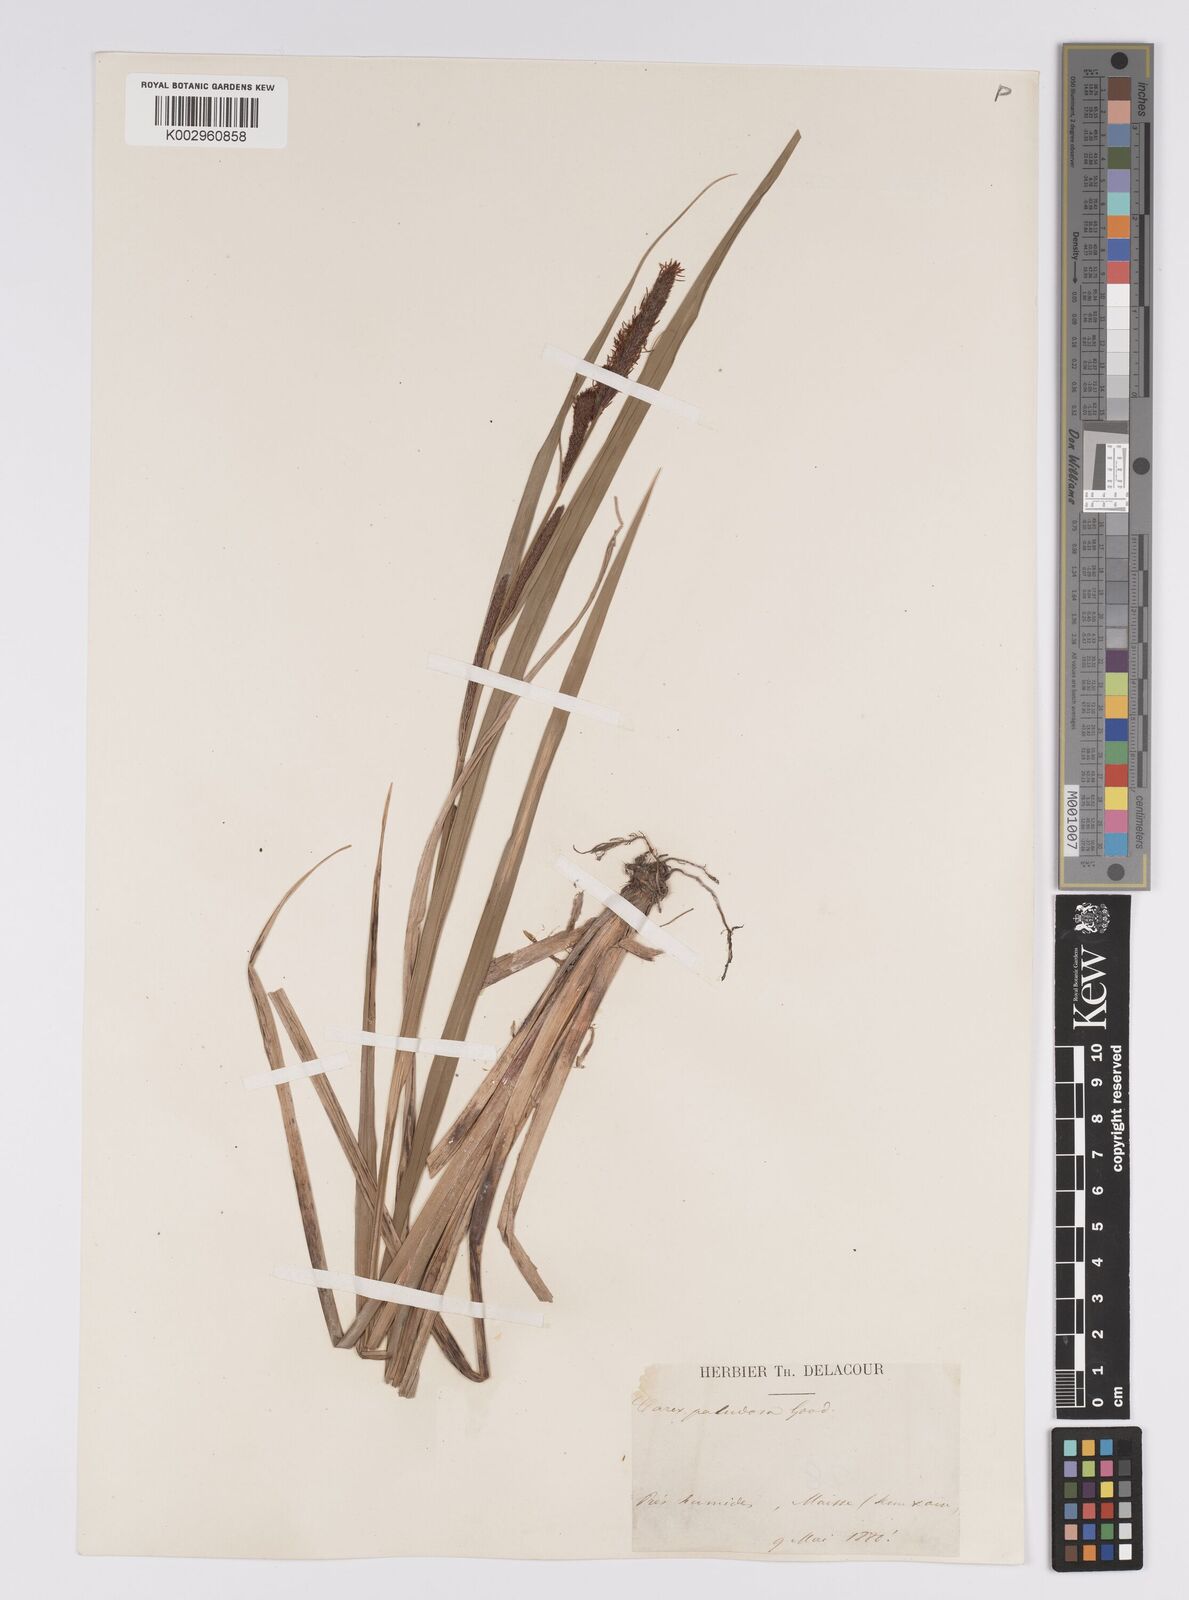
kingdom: Plantae
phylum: Tracheophyta
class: Liliopsida
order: Poales
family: Cyperaceae
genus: Carex
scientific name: Carex acutiformis
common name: Lesser pond-sedge
